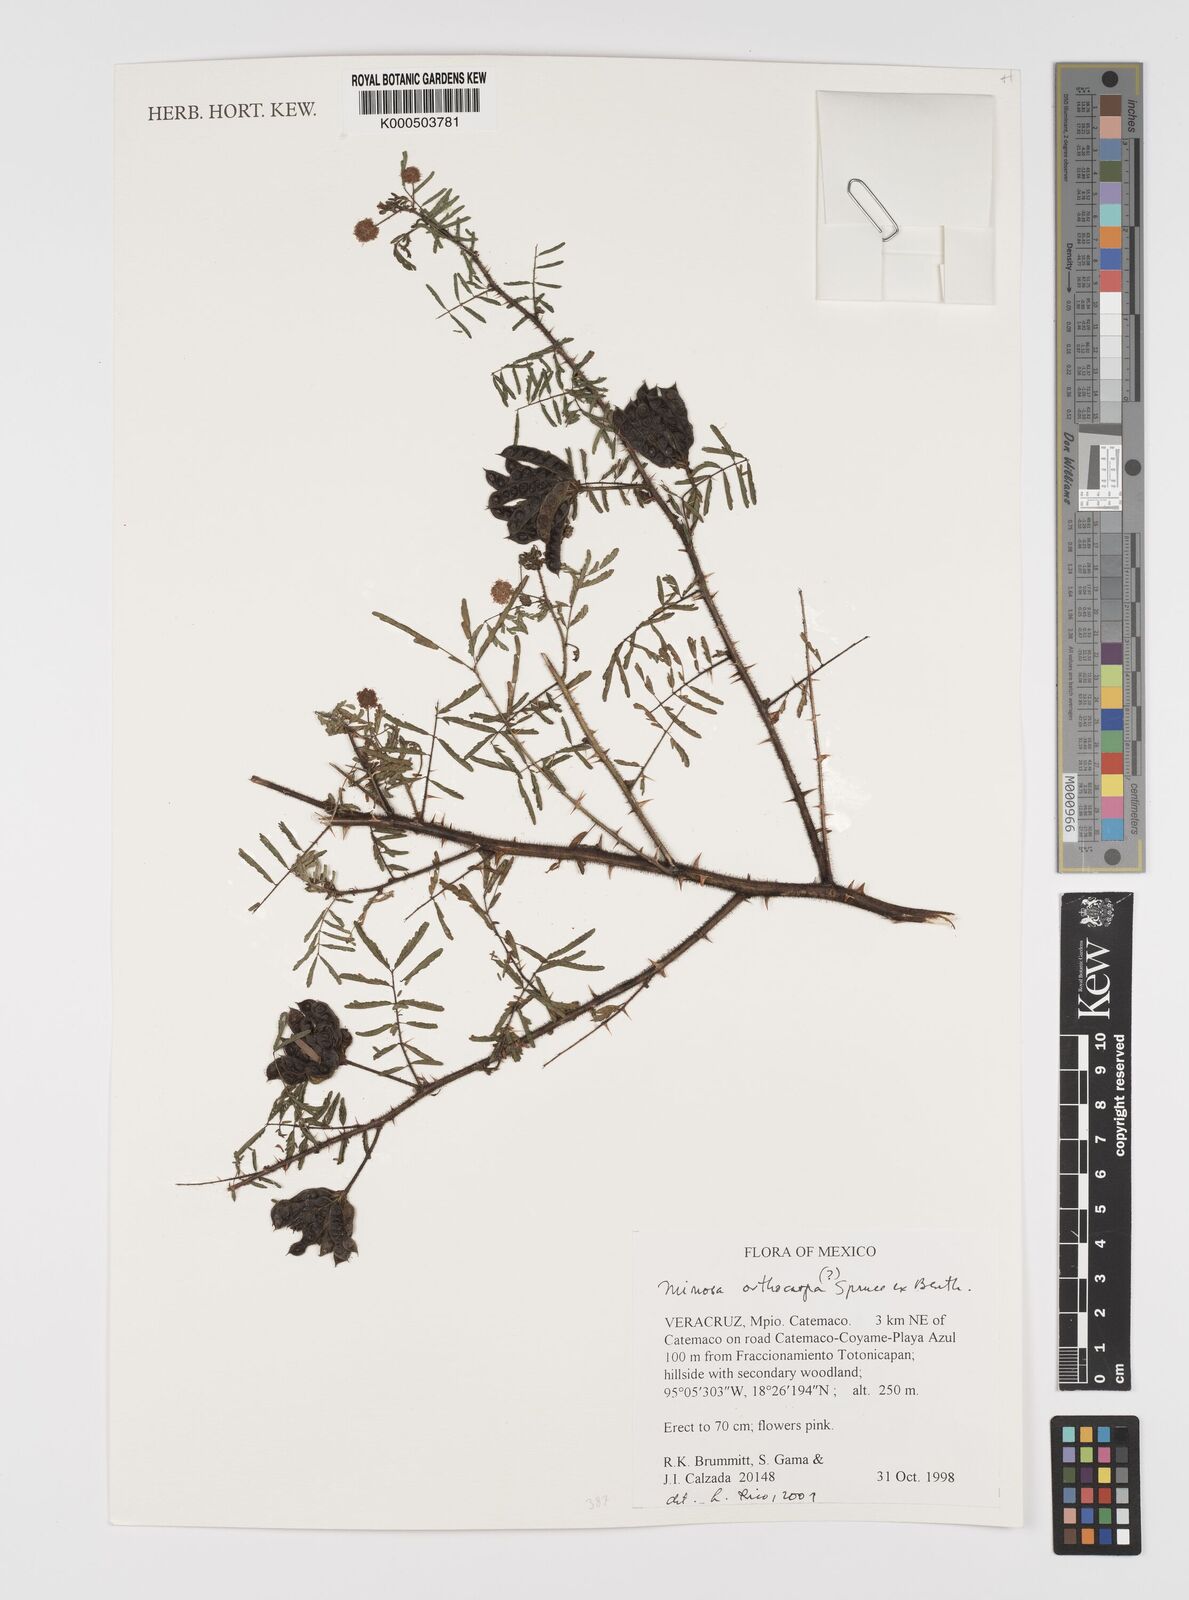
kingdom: Plantae
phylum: Tracheophyta
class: Magnoliopsida
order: Fabales
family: Fabaceae
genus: Mimosa
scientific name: Mimosa orthocarpa
